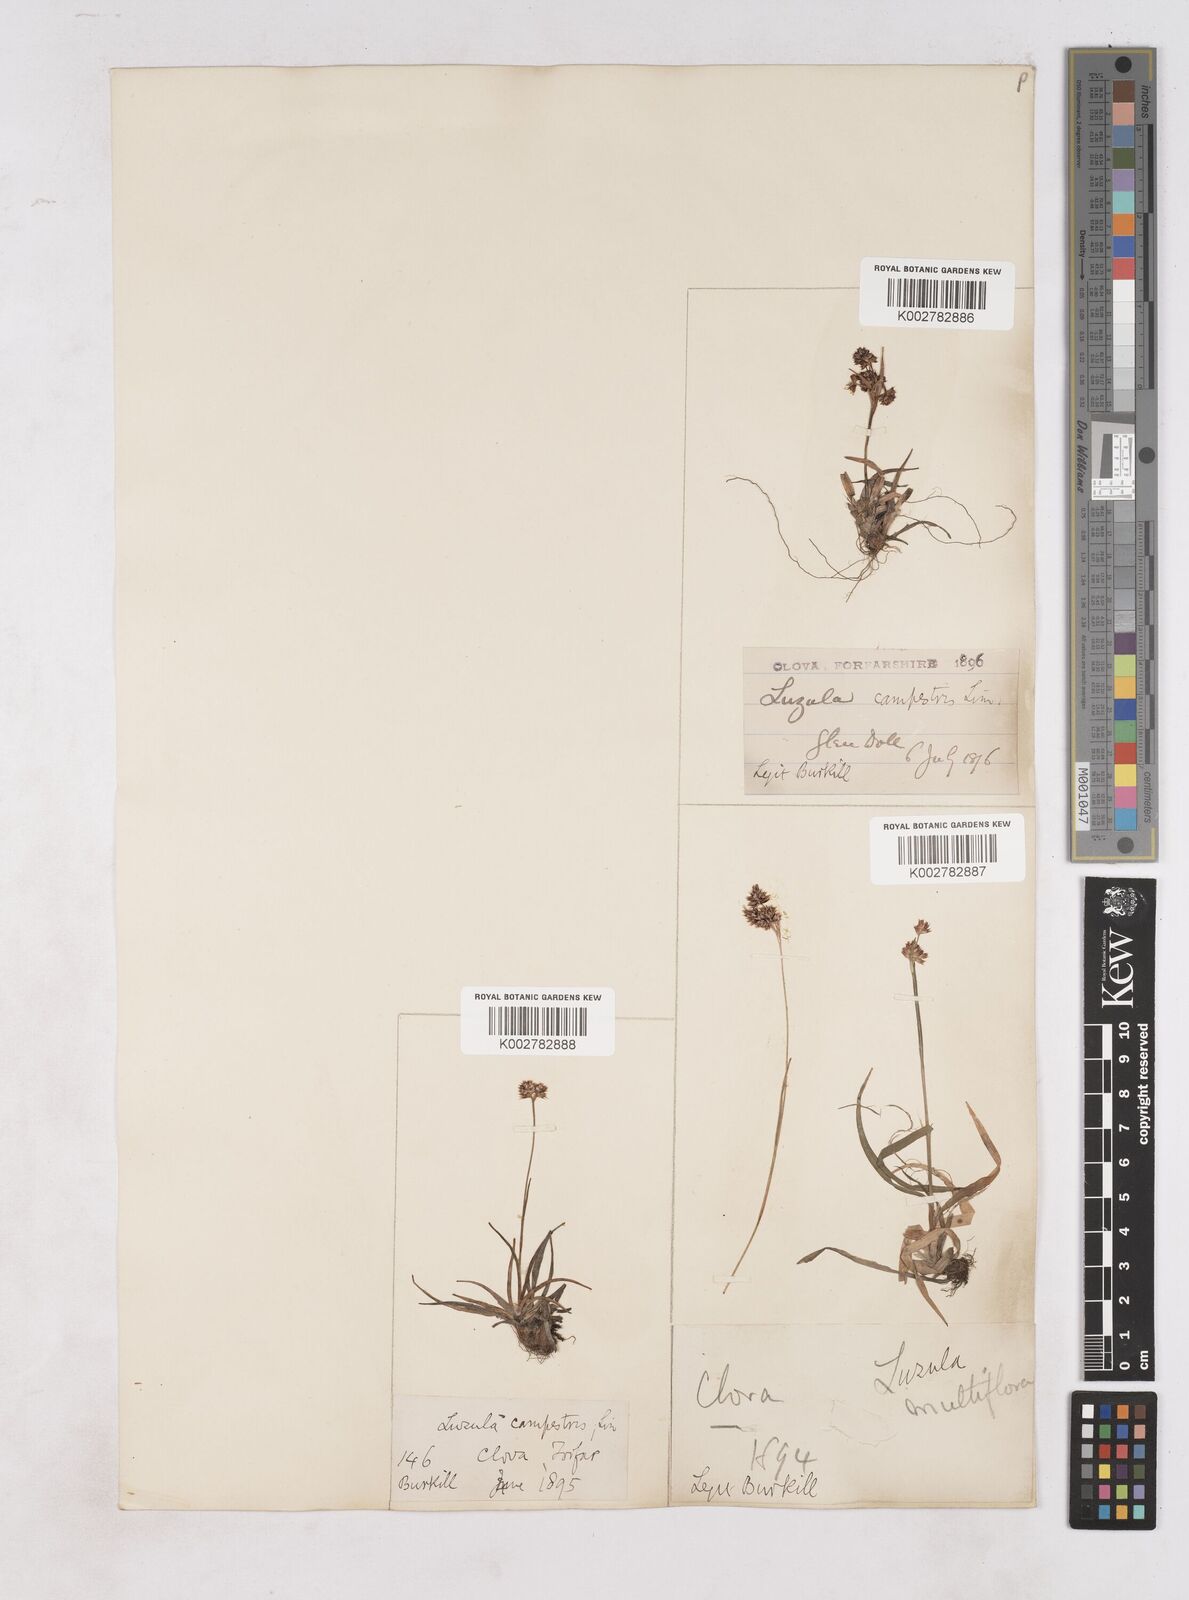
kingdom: Plantae
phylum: Tracheophyta
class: Liliopsida
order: Poales
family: Juncaceae
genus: Luzula
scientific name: Luzula campestris
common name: Field wood-rush
